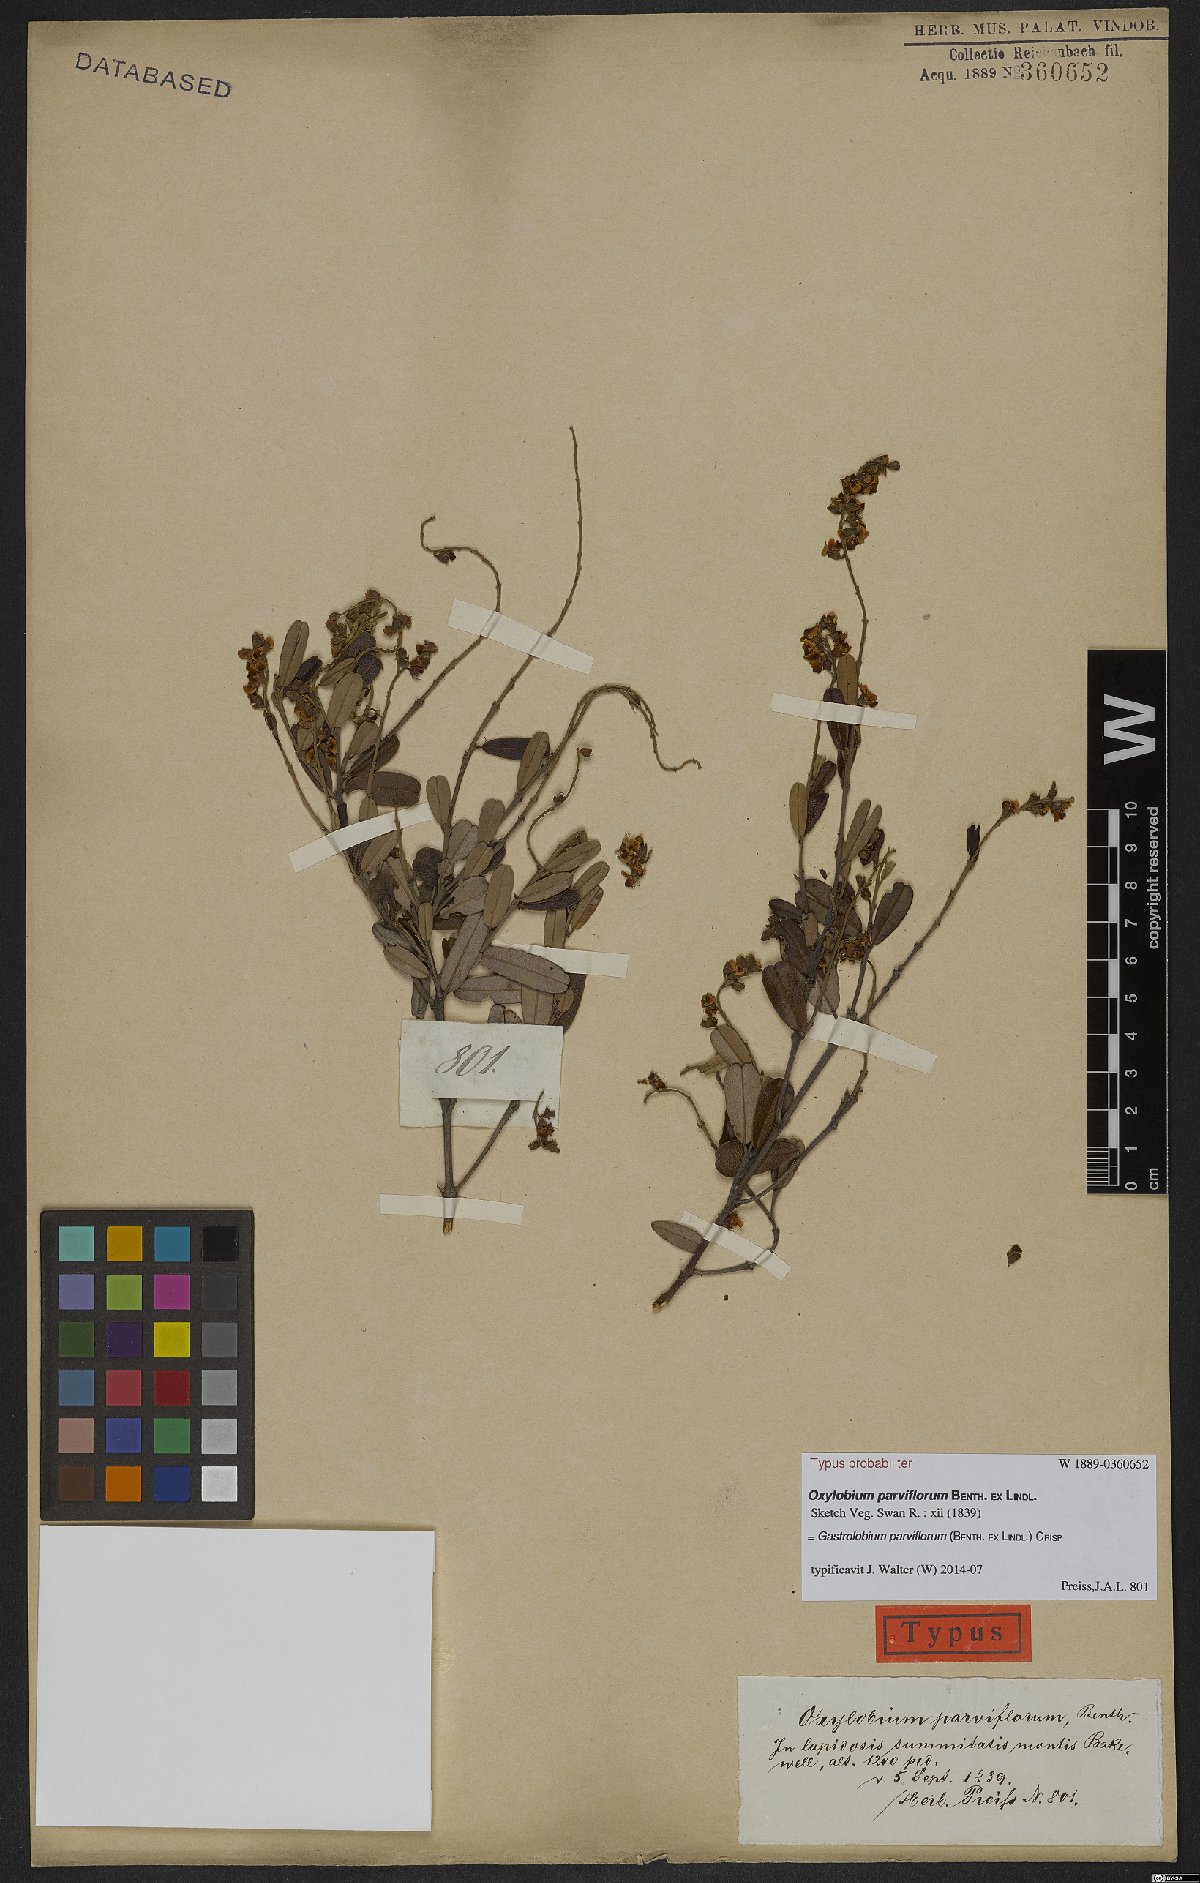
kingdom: Plantae
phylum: Tracheophyta
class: Magnoliopsida
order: Fabales
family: Fabaceae
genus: Gastrolobium
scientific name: Gastrolobium parviflorum
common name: Berry poisonbush
